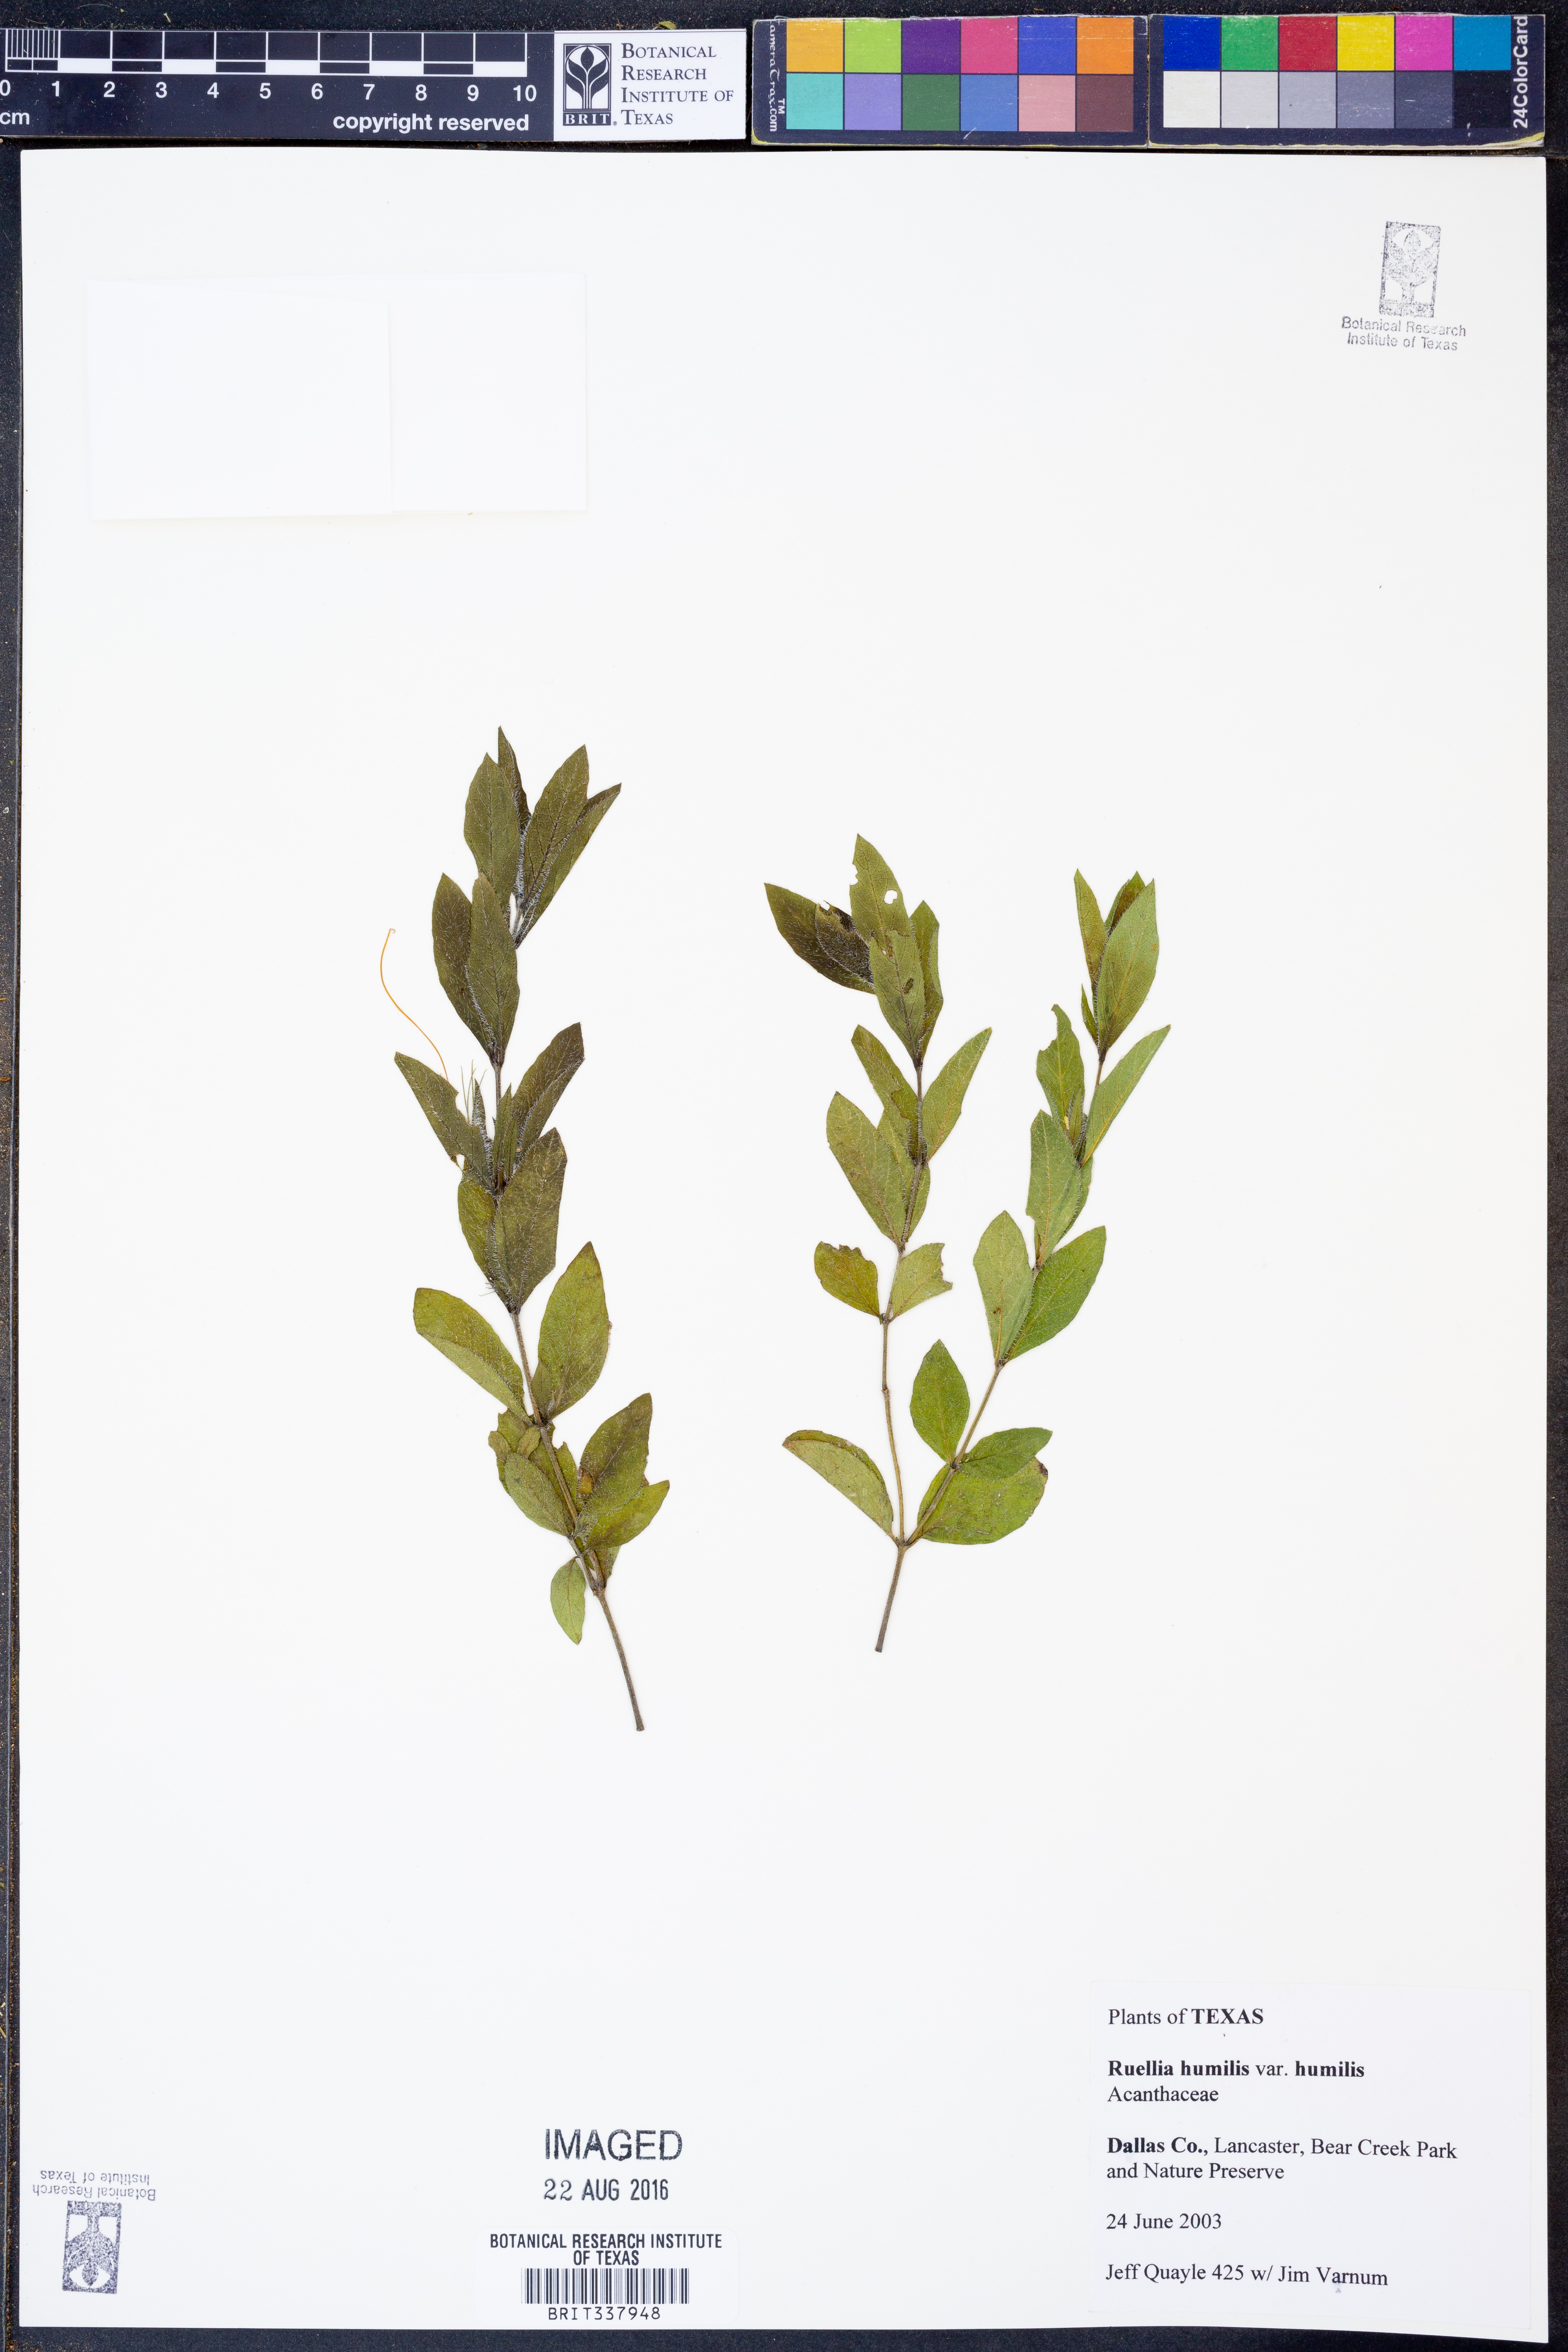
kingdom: Plantae
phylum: Tracheophyta
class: Magnoliopsida
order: Lamiales
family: Acanthaceae
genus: Ruellia
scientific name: Ruellia humilis
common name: Fringe-leaf ruellia
